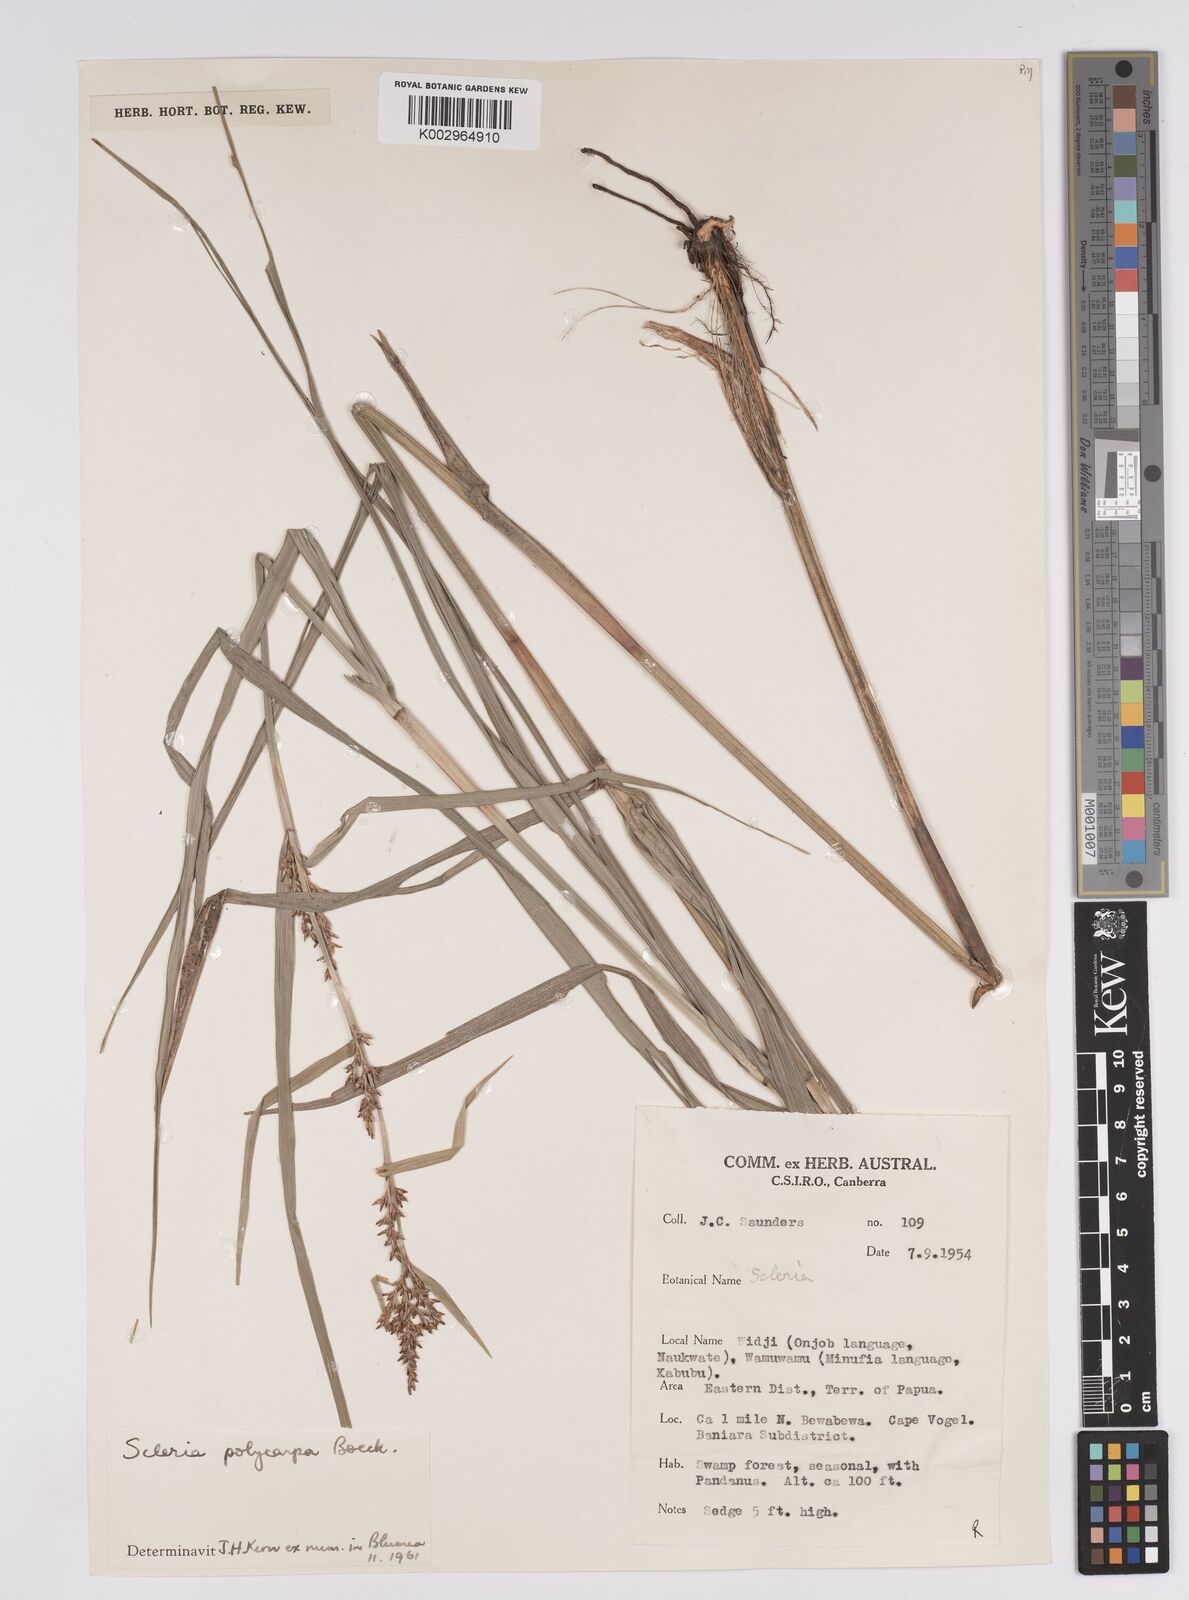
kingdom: Plantae
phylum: Tracheophyta
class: Liliopsida
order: Poales
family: Cyperaceae
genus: Scleria
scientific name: Scleria polycarpa
